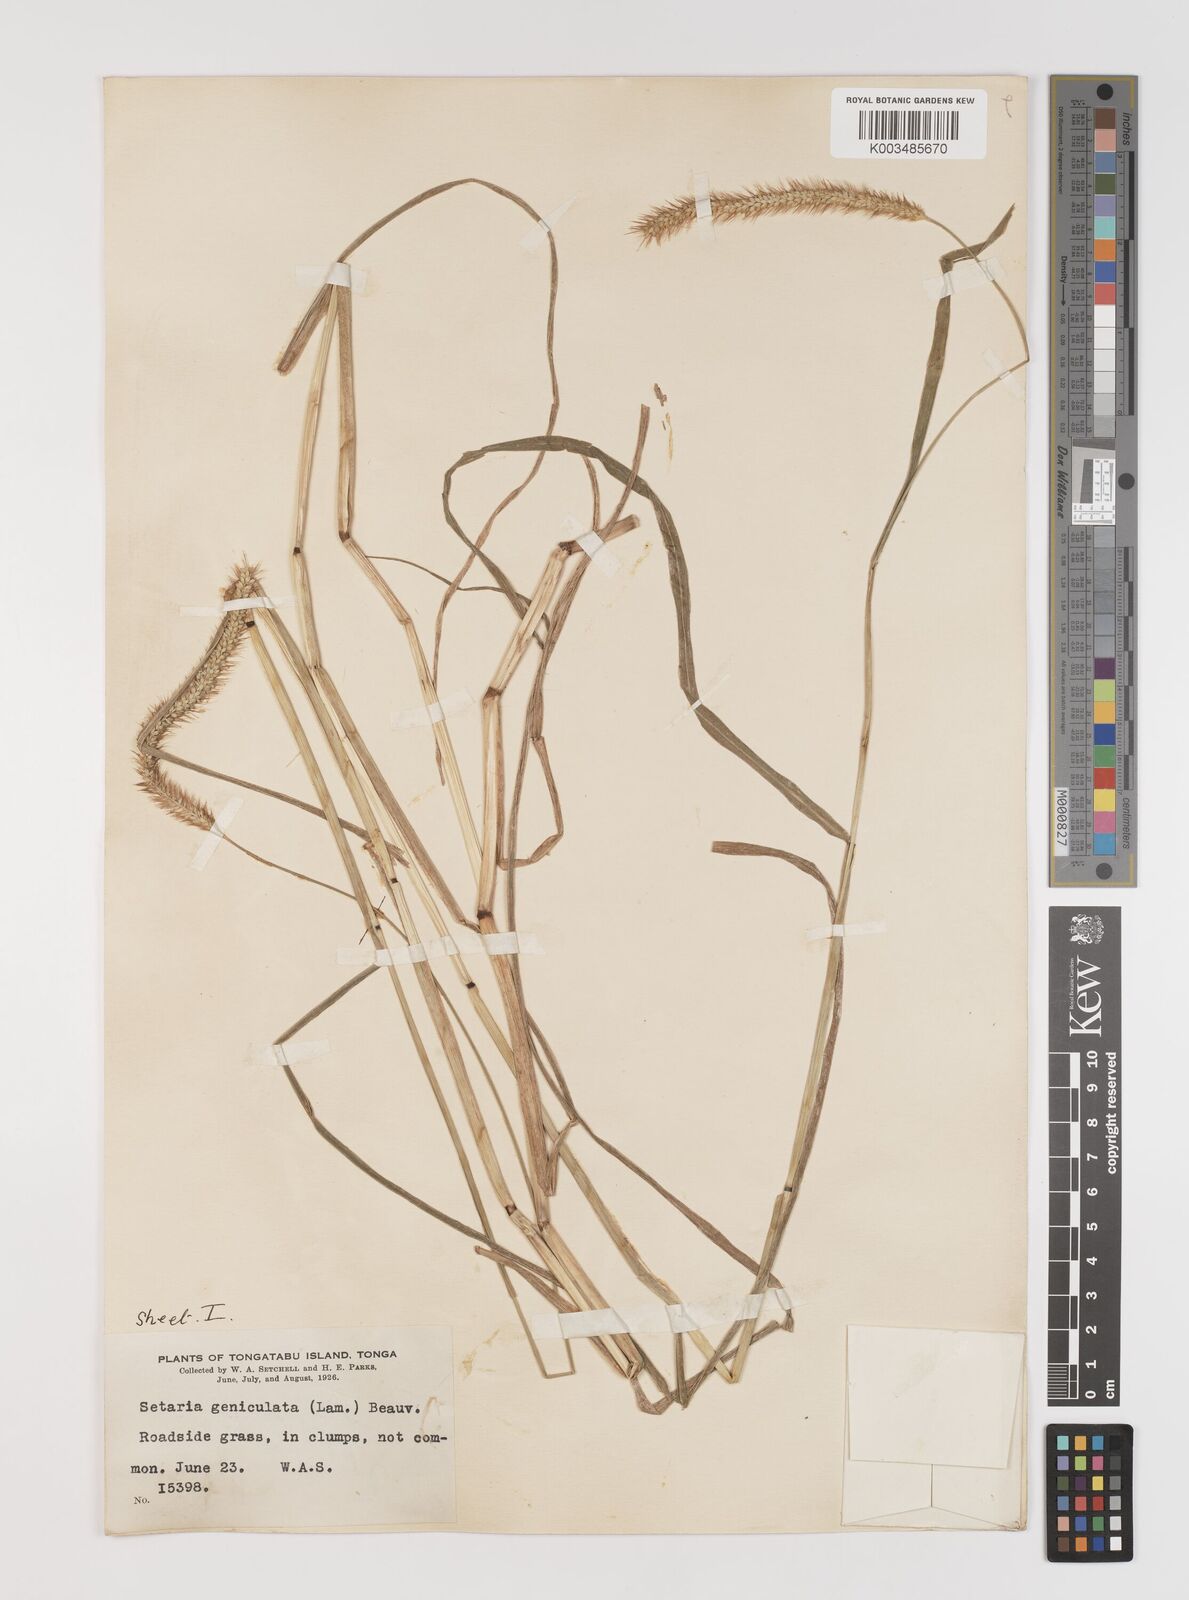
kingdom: Plantae
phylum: Tracheophyta
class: Liliopsida
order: Poales
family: Poaceae
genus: Setaria
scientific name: Setaria parviflora
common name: Knotroot bristle-grass
